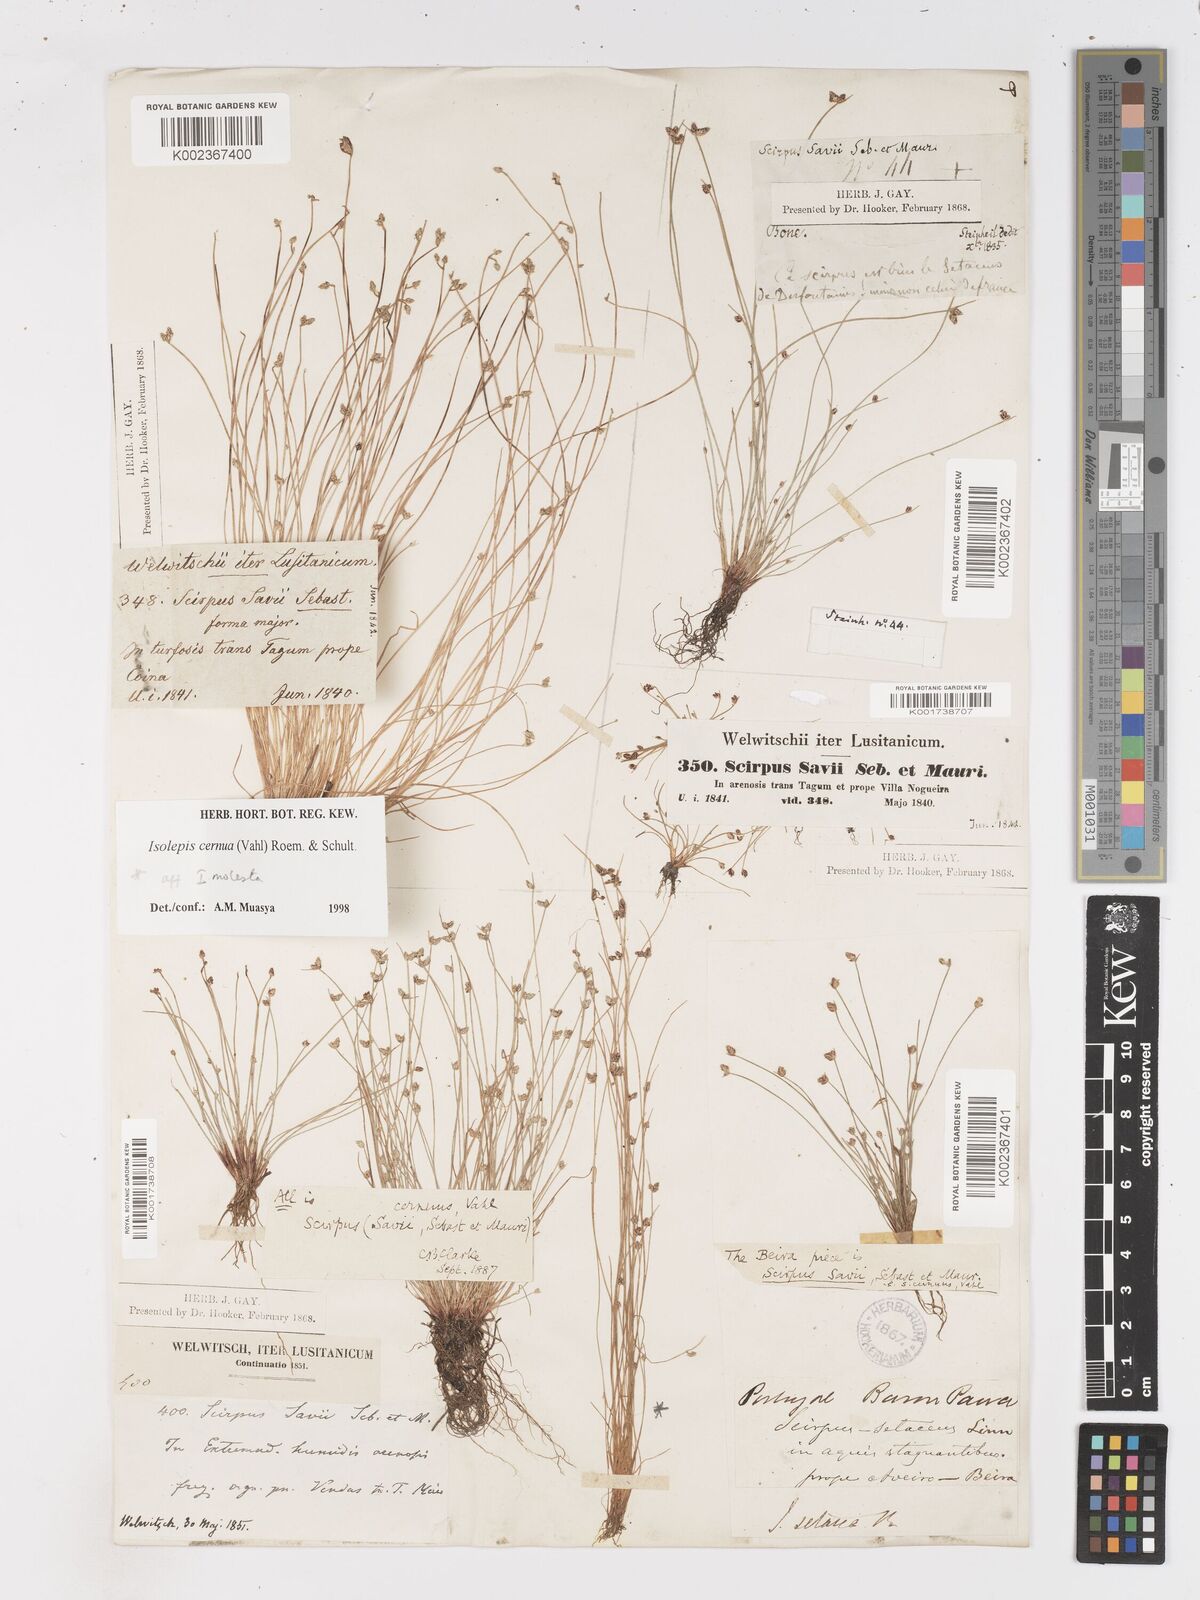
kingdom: Plantae
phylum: Tracheophyta
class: Liliopsida
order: Poales
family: Cyperaceae
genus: Isolepis
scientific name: Isolepis cernua
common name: Slender club-rush
